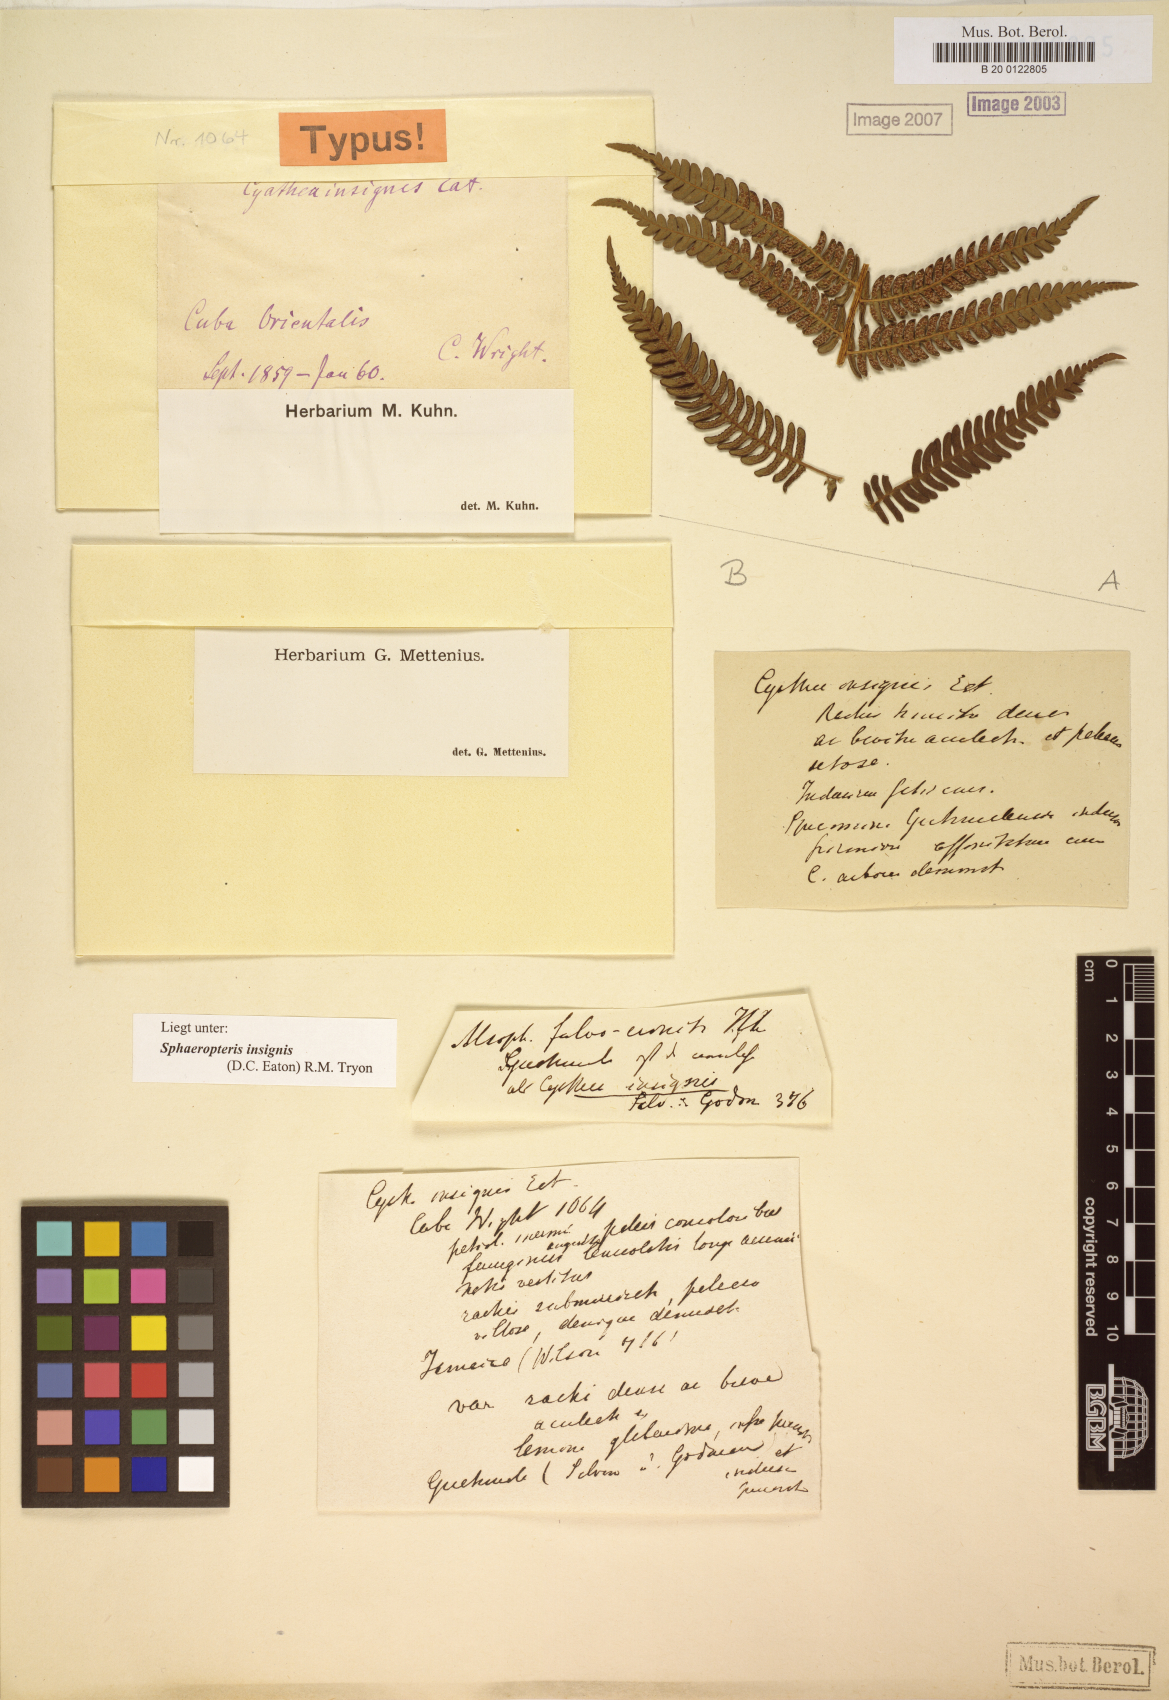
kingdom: Plantae
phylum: Tracheophyta
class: Polypodiopsida
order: Cyatheales
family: Cyatheaceae
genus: Sphaeropteris
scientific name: Sphaeropteris insignis
